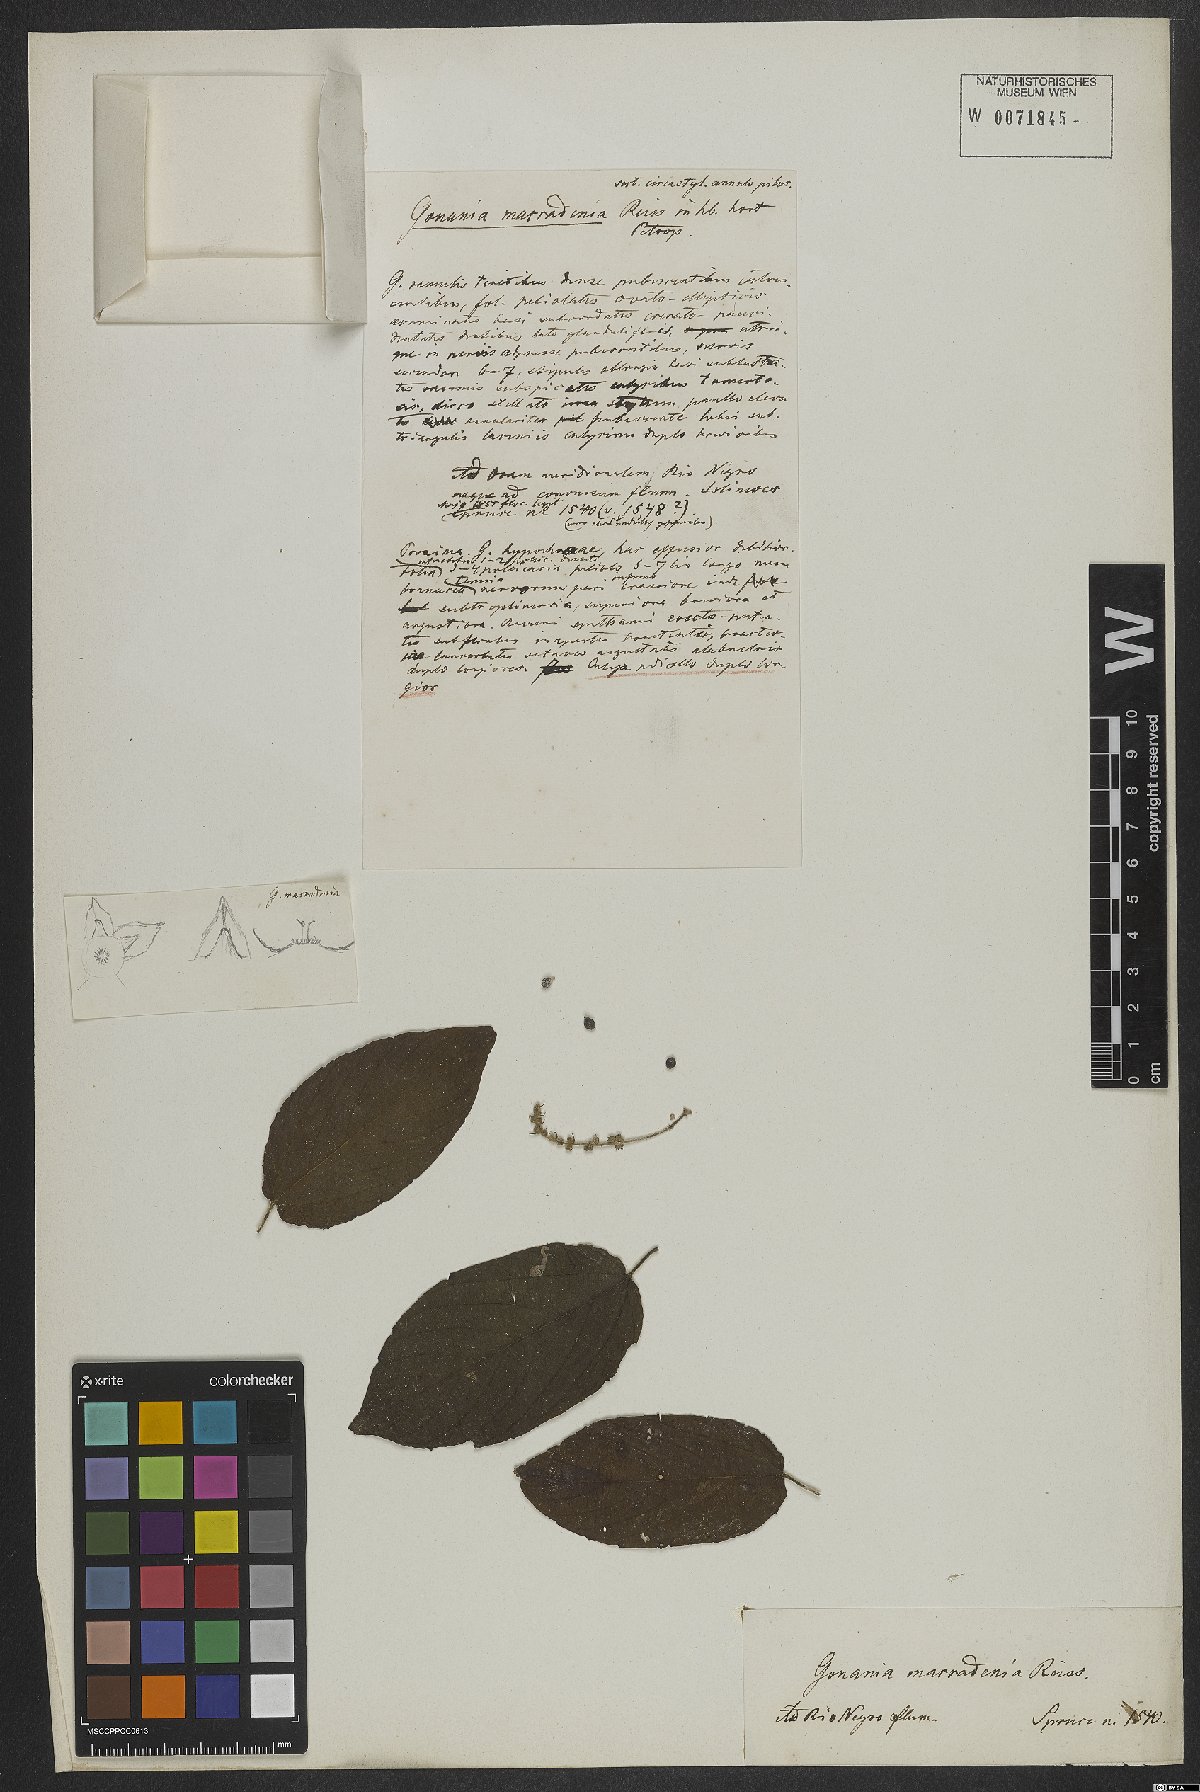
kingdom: Plantae
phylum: Tracheophyta
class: Magnoliopsida
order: Rosales
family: Rhamnaceae
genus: Gouania
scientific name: Gouania
